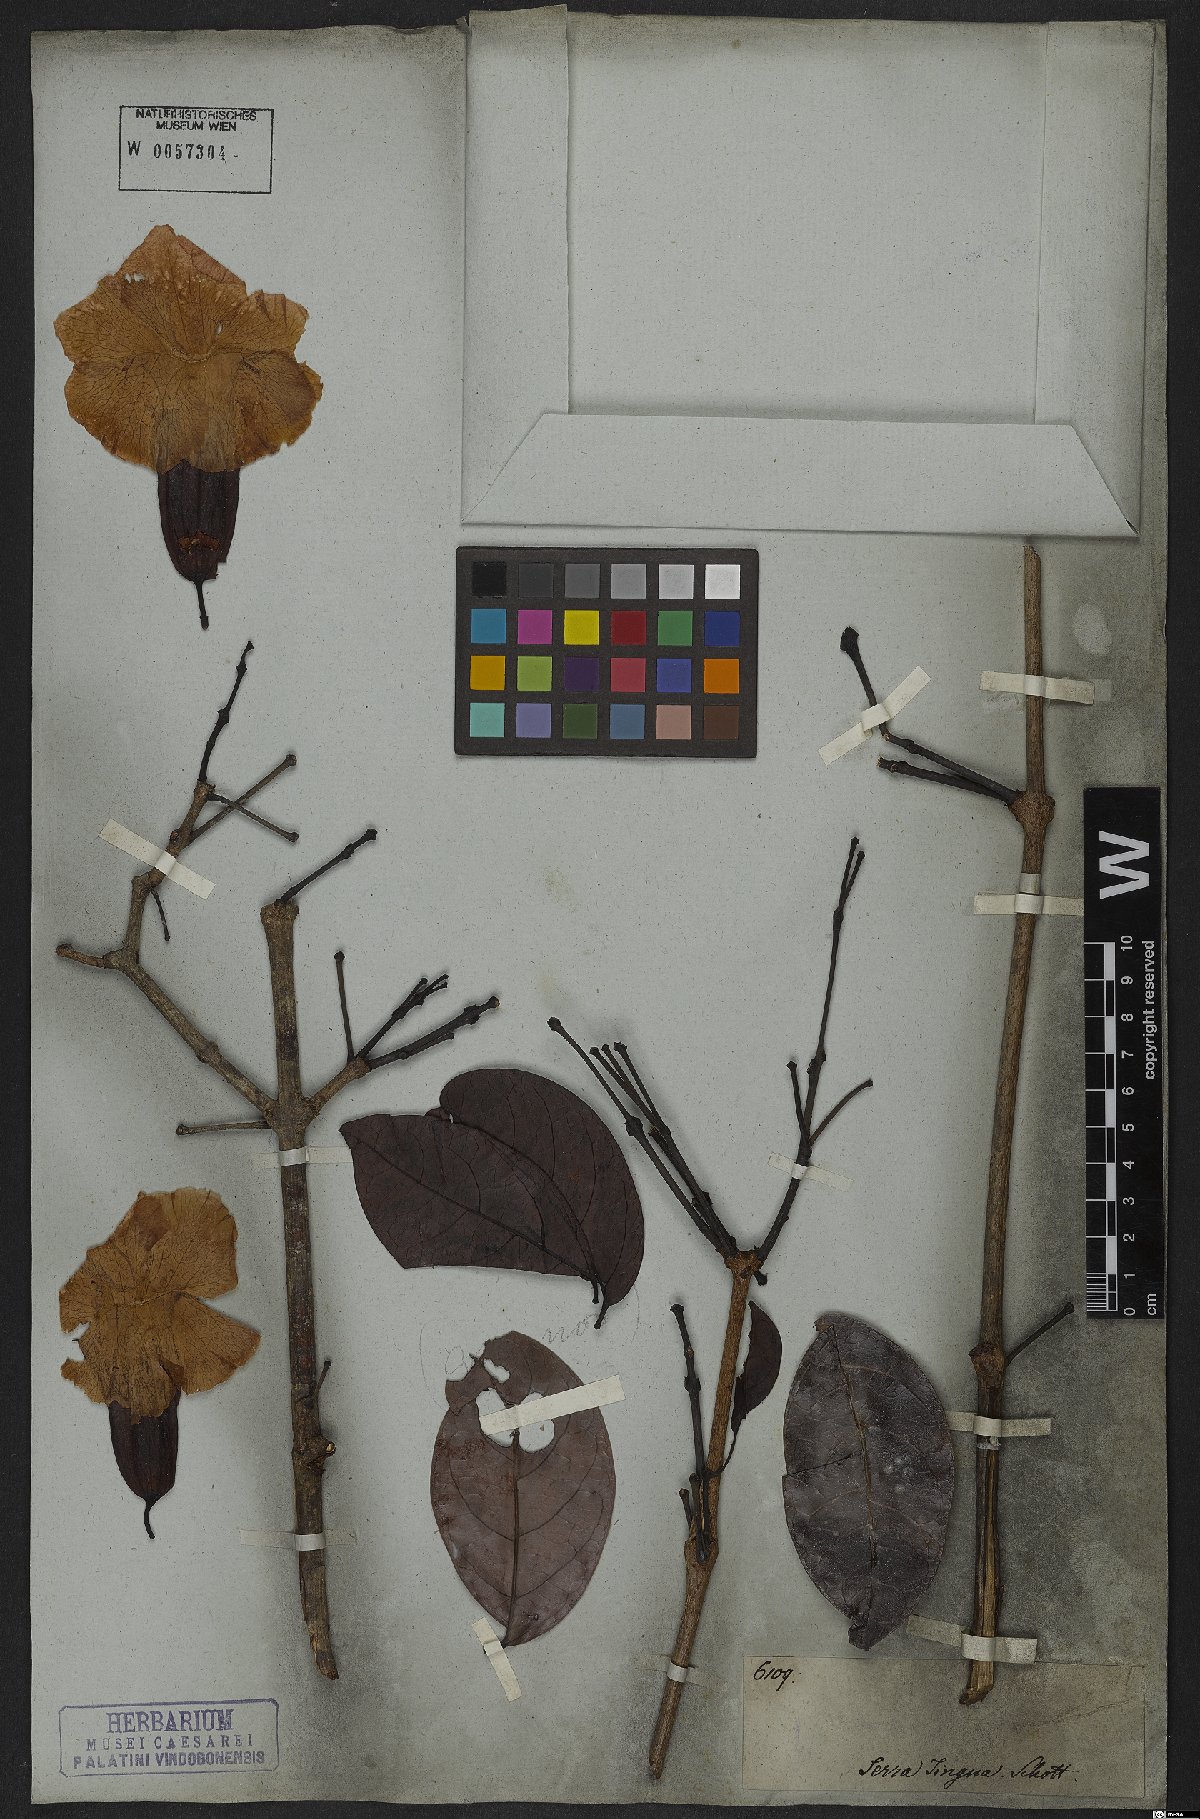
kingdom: Plantae
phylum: Tracheophyta
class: Magnoliopsida
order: Lamiales
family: Bignoniaceae
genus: Callichlamys
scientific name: Callichlamys latifolia
